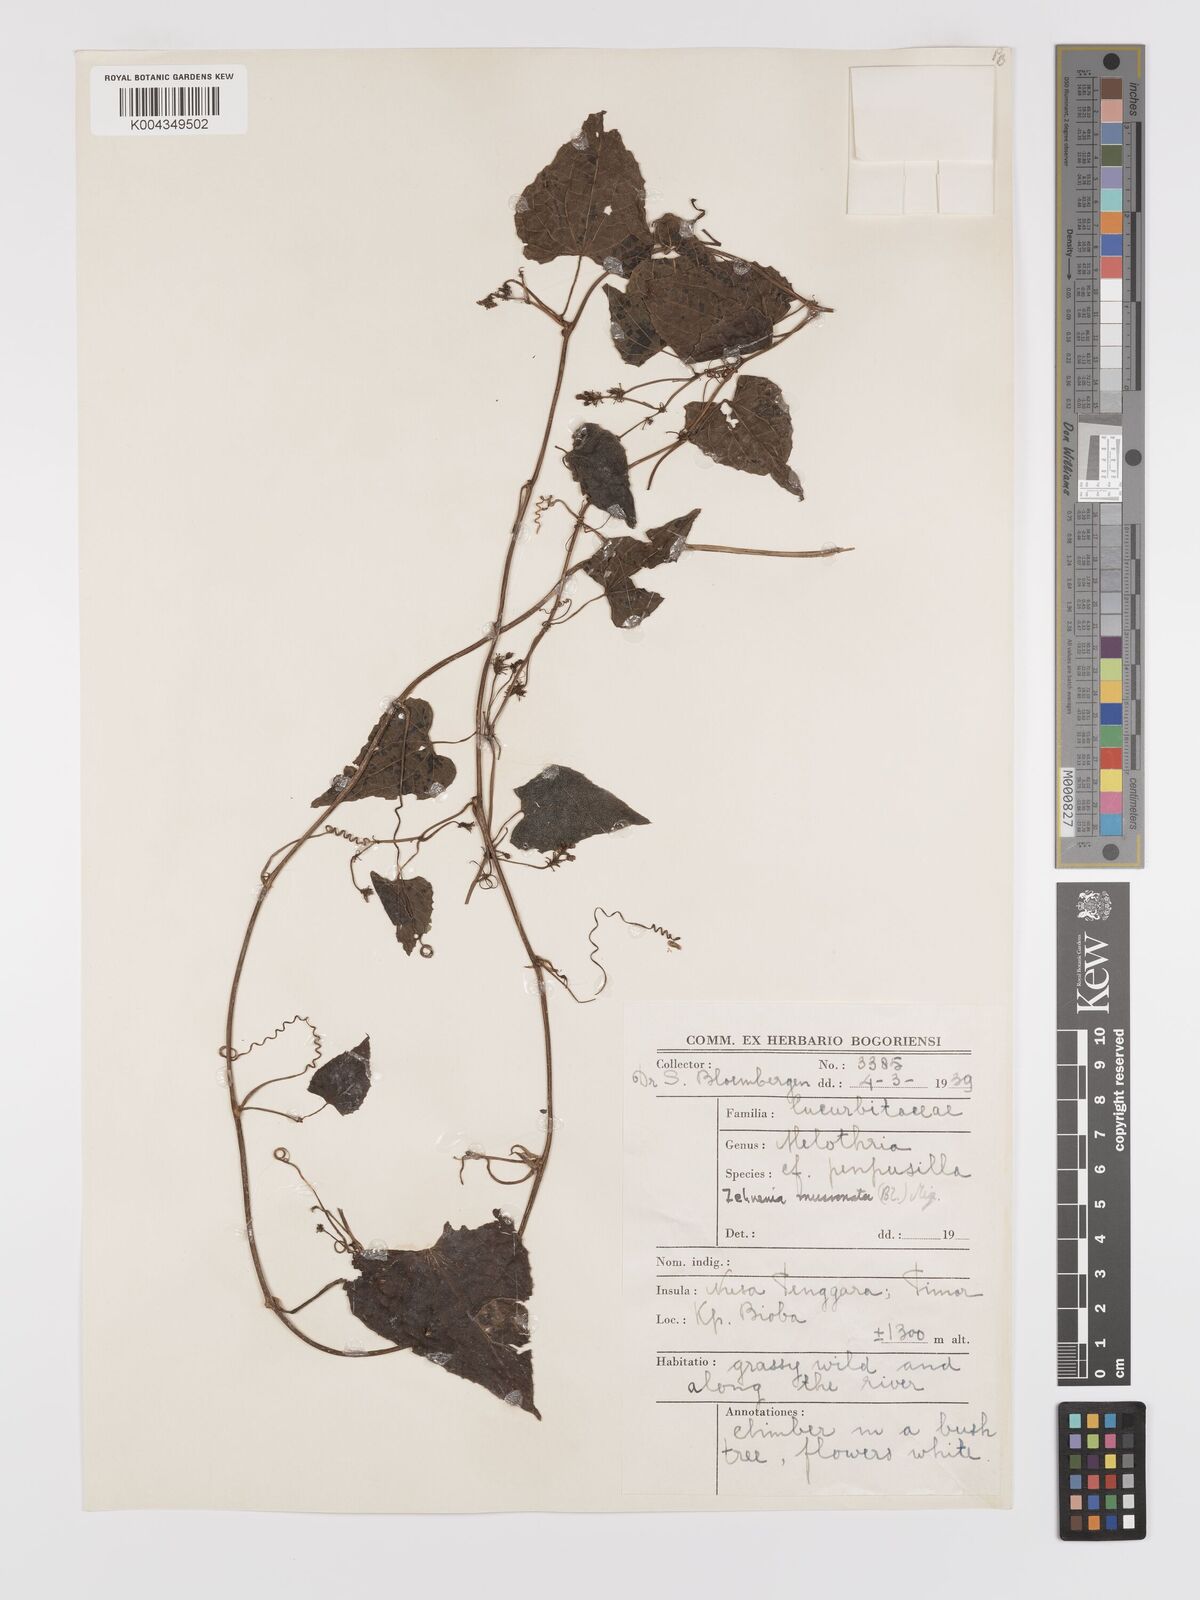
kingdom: Plantae
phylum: Tracheophyta
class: Magnoliopsida
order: Cucurbitales
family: Cucurbitaceae
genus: Zehneria
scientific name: Zehneria mucronata
